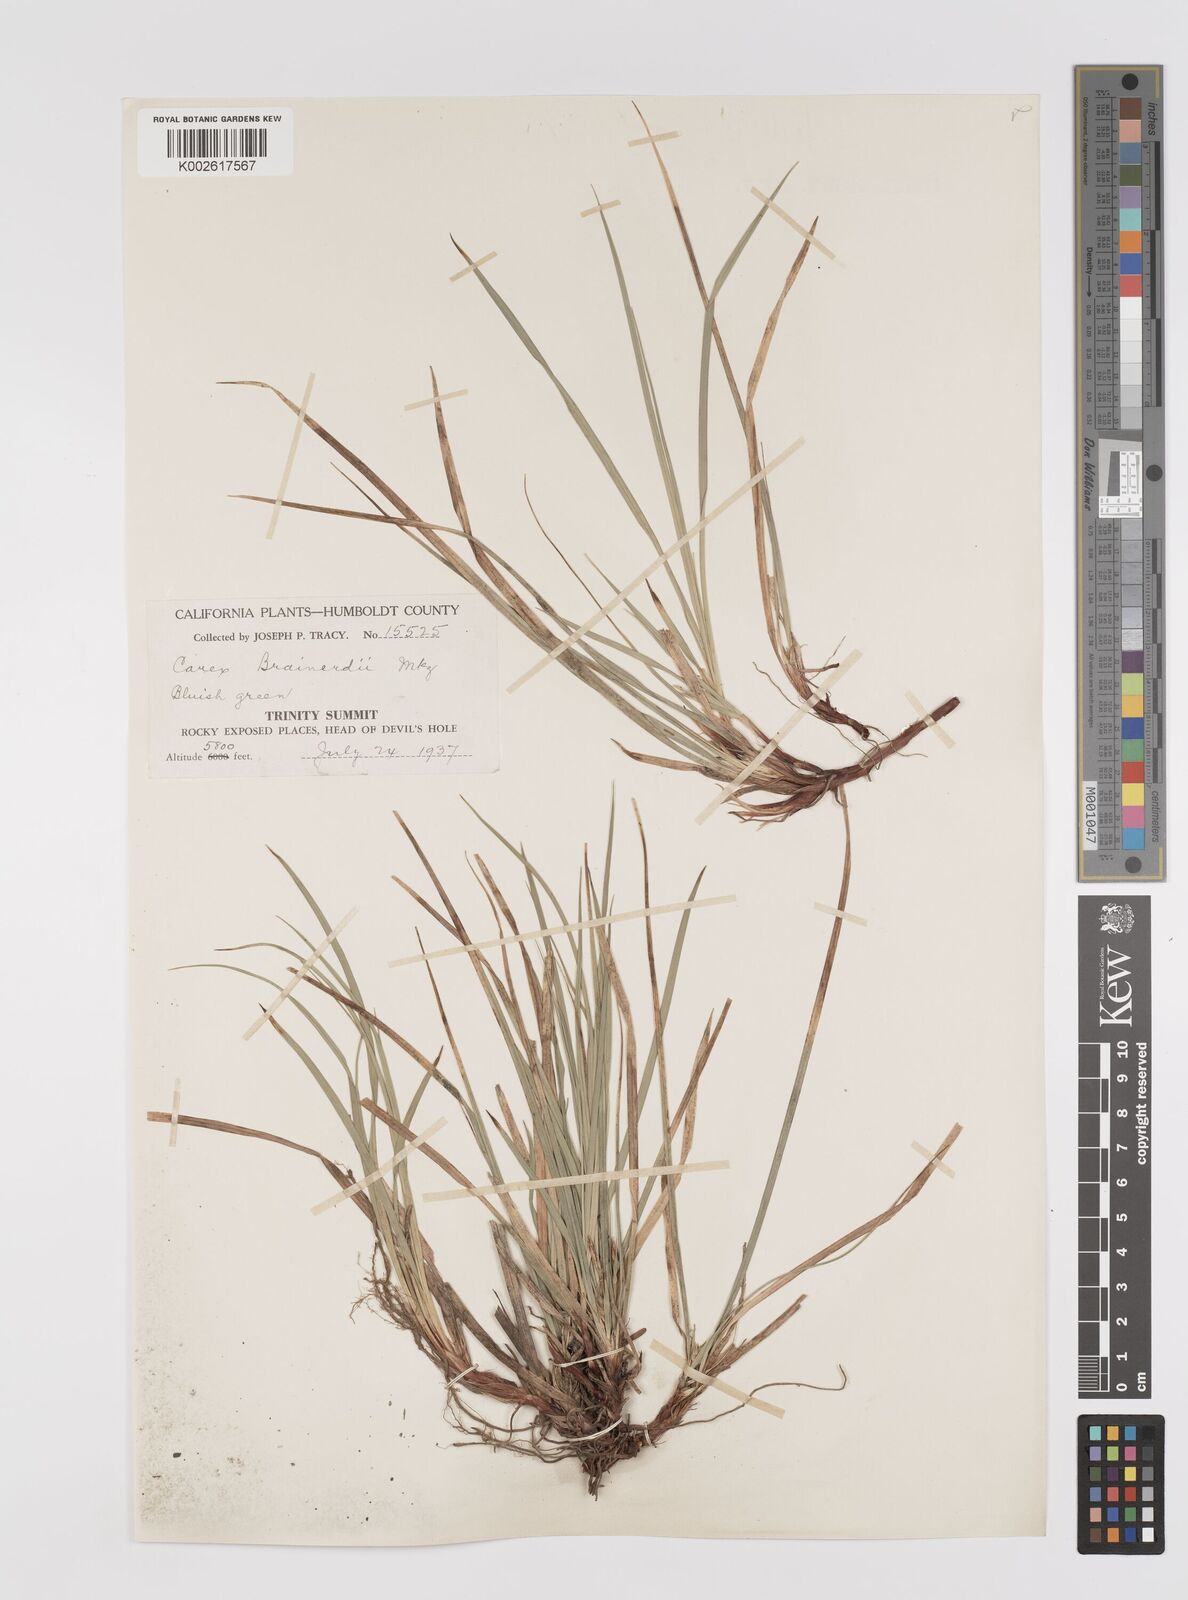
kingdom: Plantae
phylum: Tracheophyta
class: Liliopsida
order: Poales
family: Cyperaceae
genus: Carex
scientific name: Carex brainerdii
